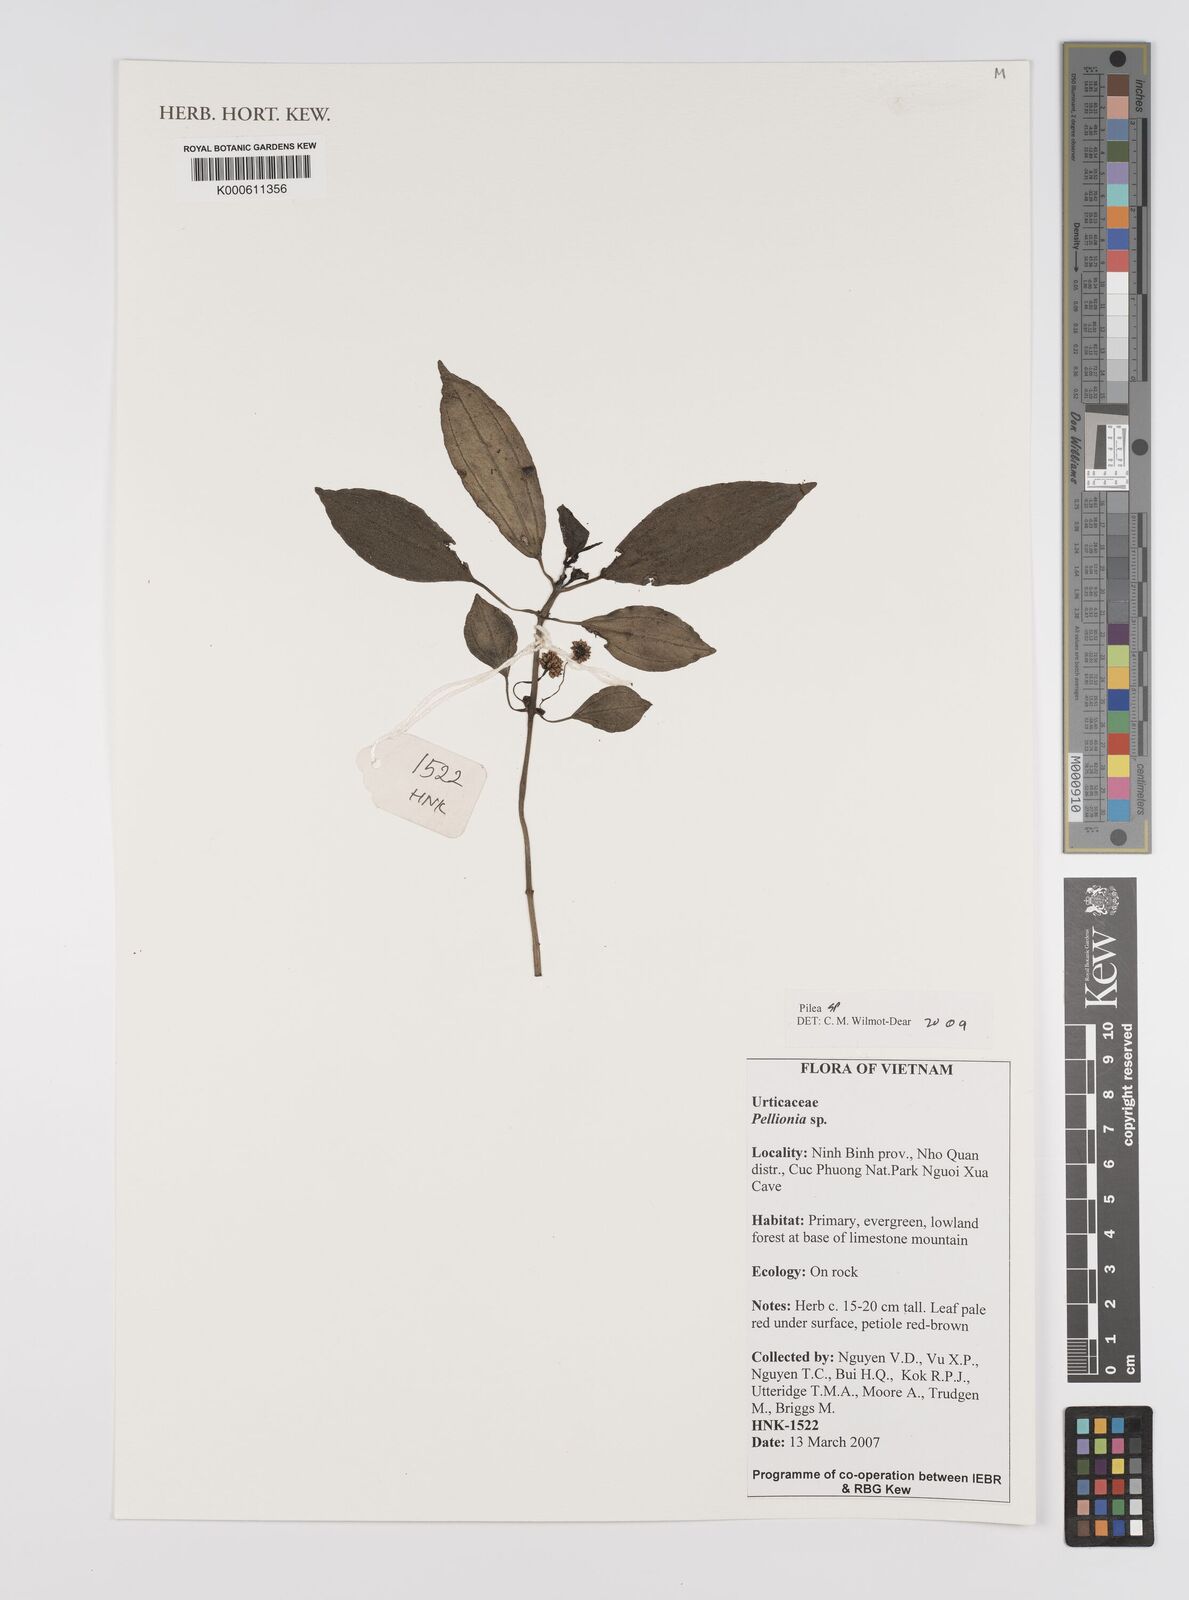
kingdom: Plantae
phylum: Tracheophyta
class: Magnoliopsida
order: Rosales
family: Urticaceae
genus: Pilea
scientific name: Pilea
